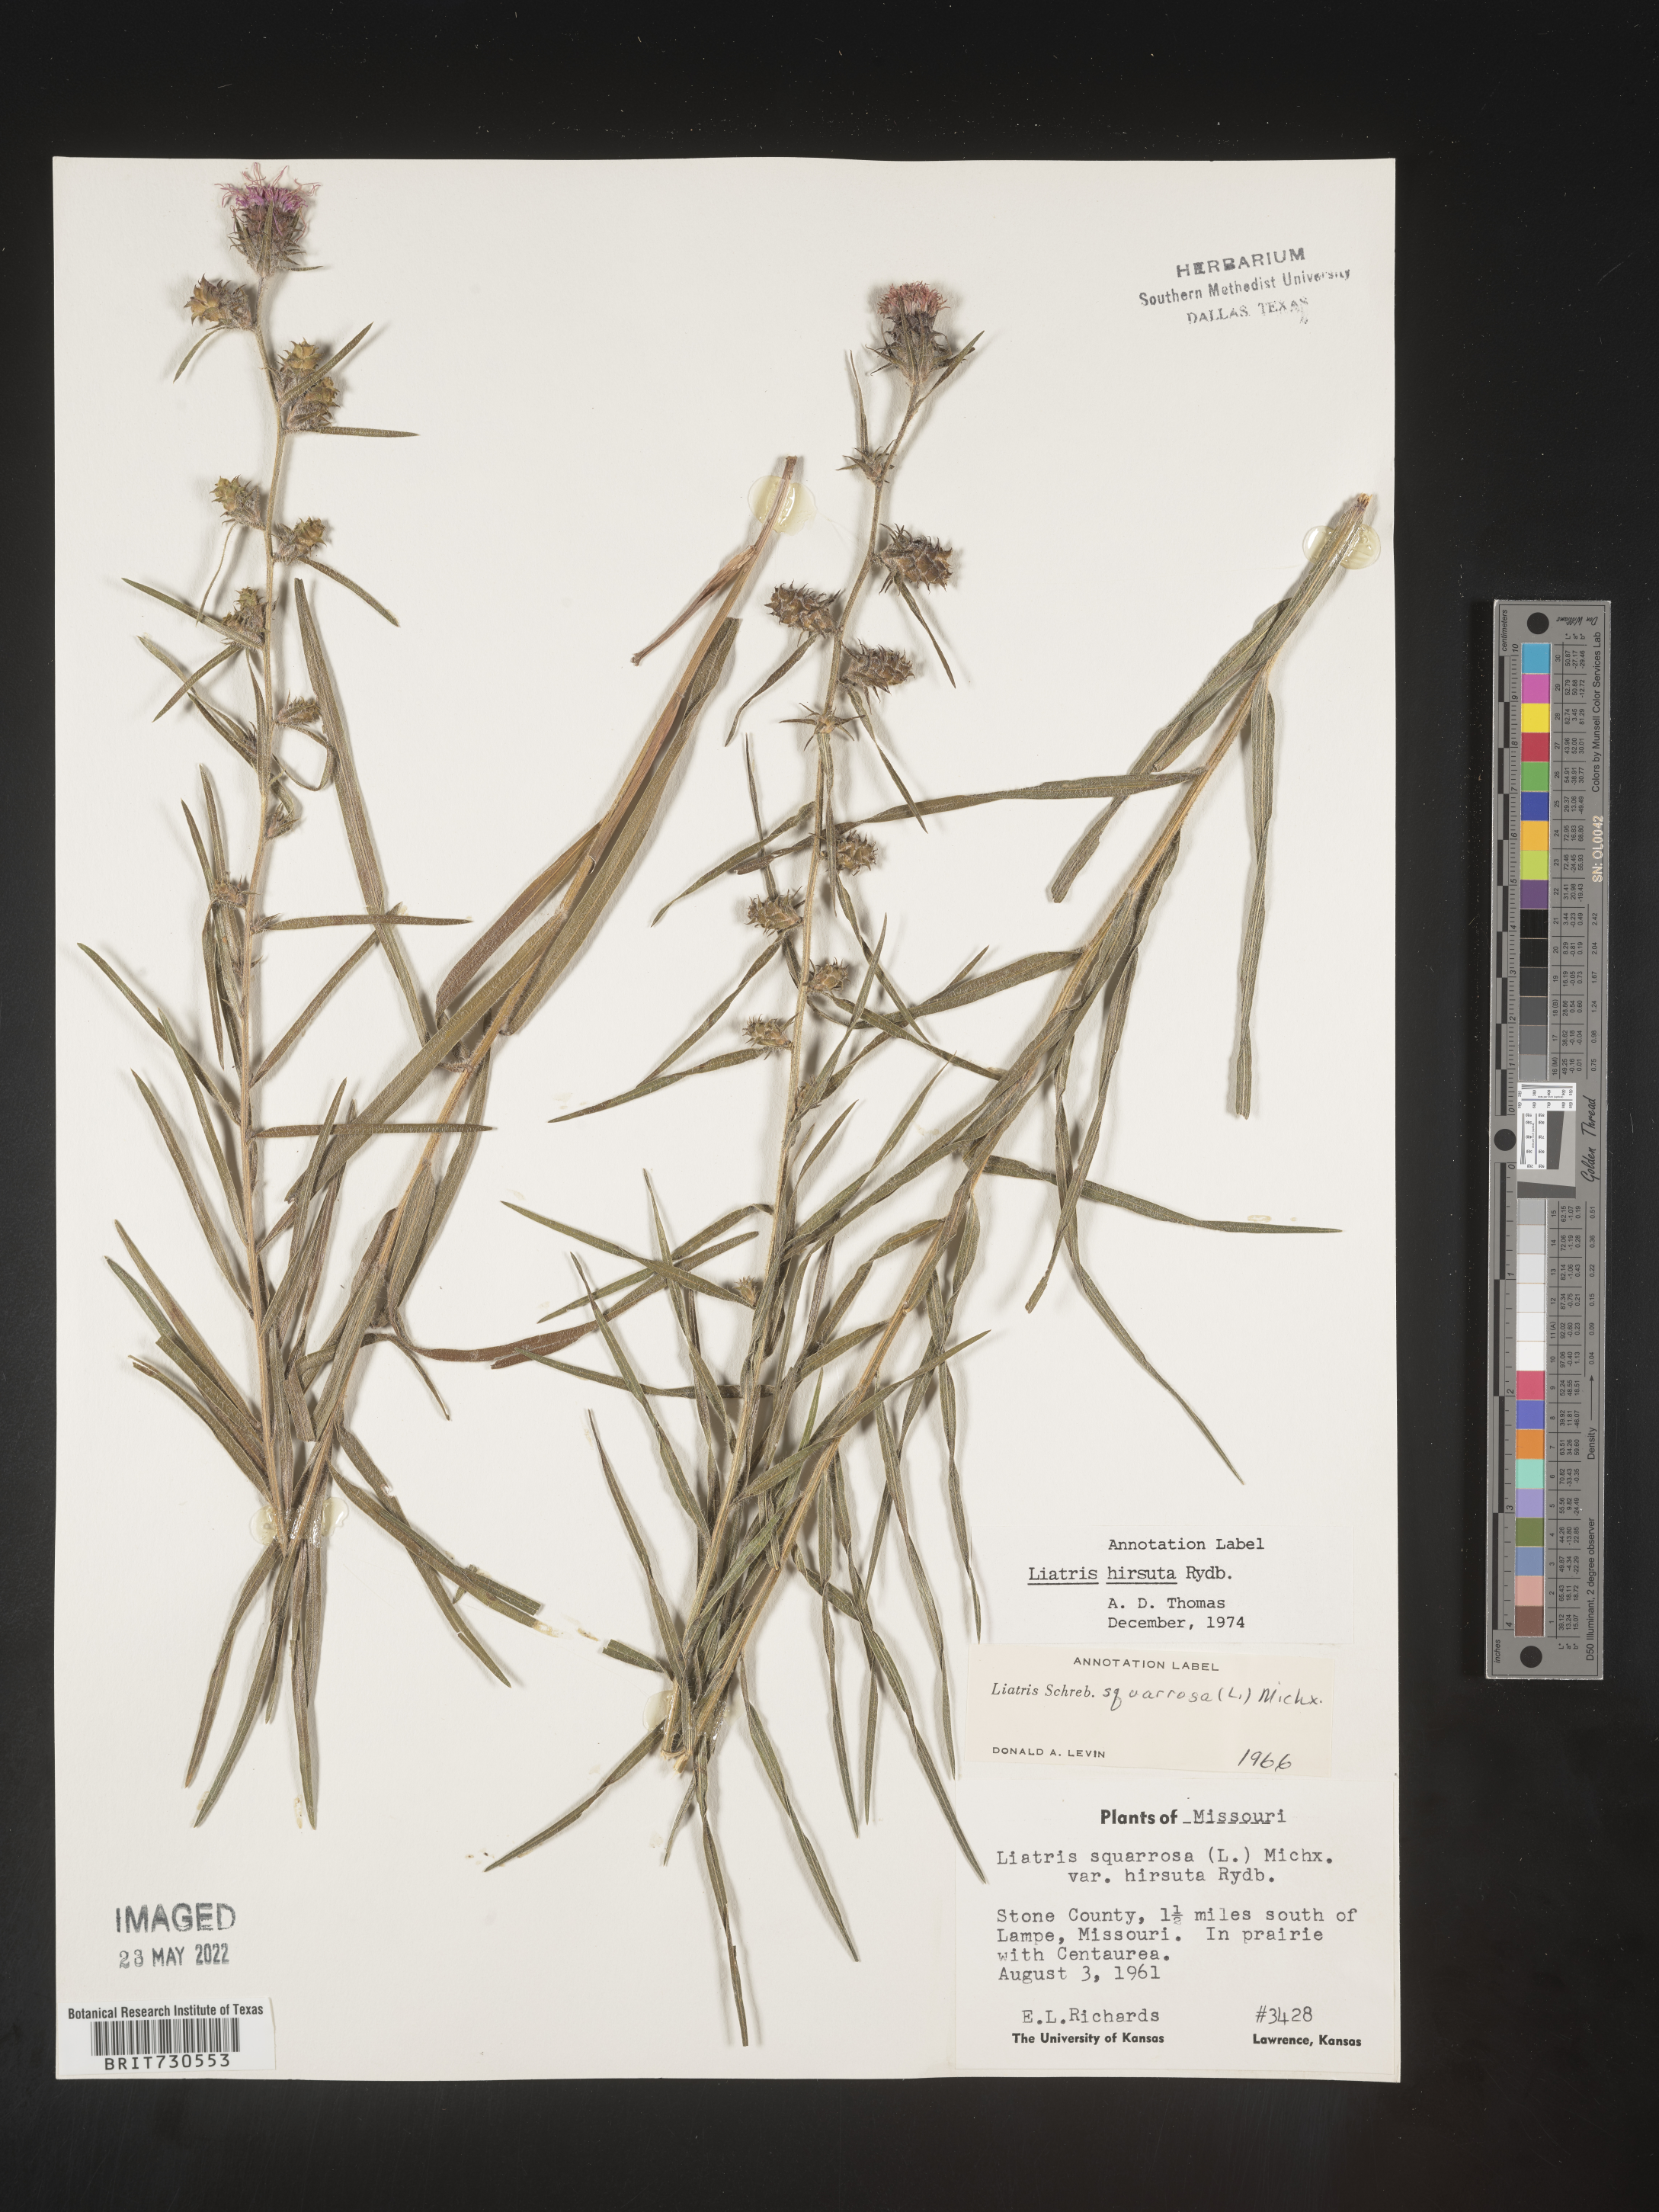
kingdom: Plantae
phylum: Tracheophyta
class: Magnoliopsida
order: Asterales
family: Asteraceae
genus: Liatris
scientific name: Liatris hirsuta
